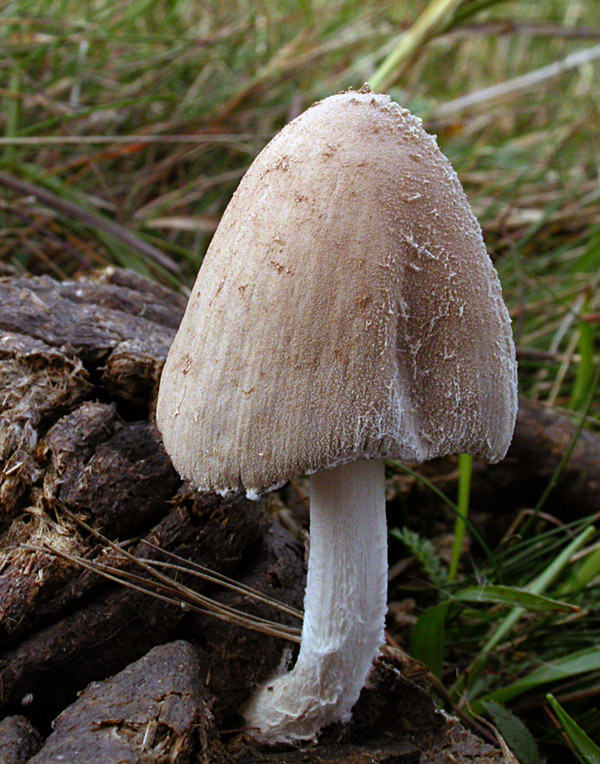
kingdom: Fungi
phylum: Basidiomycota
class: Agaricomycetes
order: Agaricales
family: Psathyrellaceae
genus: Coprinopsis
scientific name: Coprinopsis pseudonivea
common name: pudret blækhat
